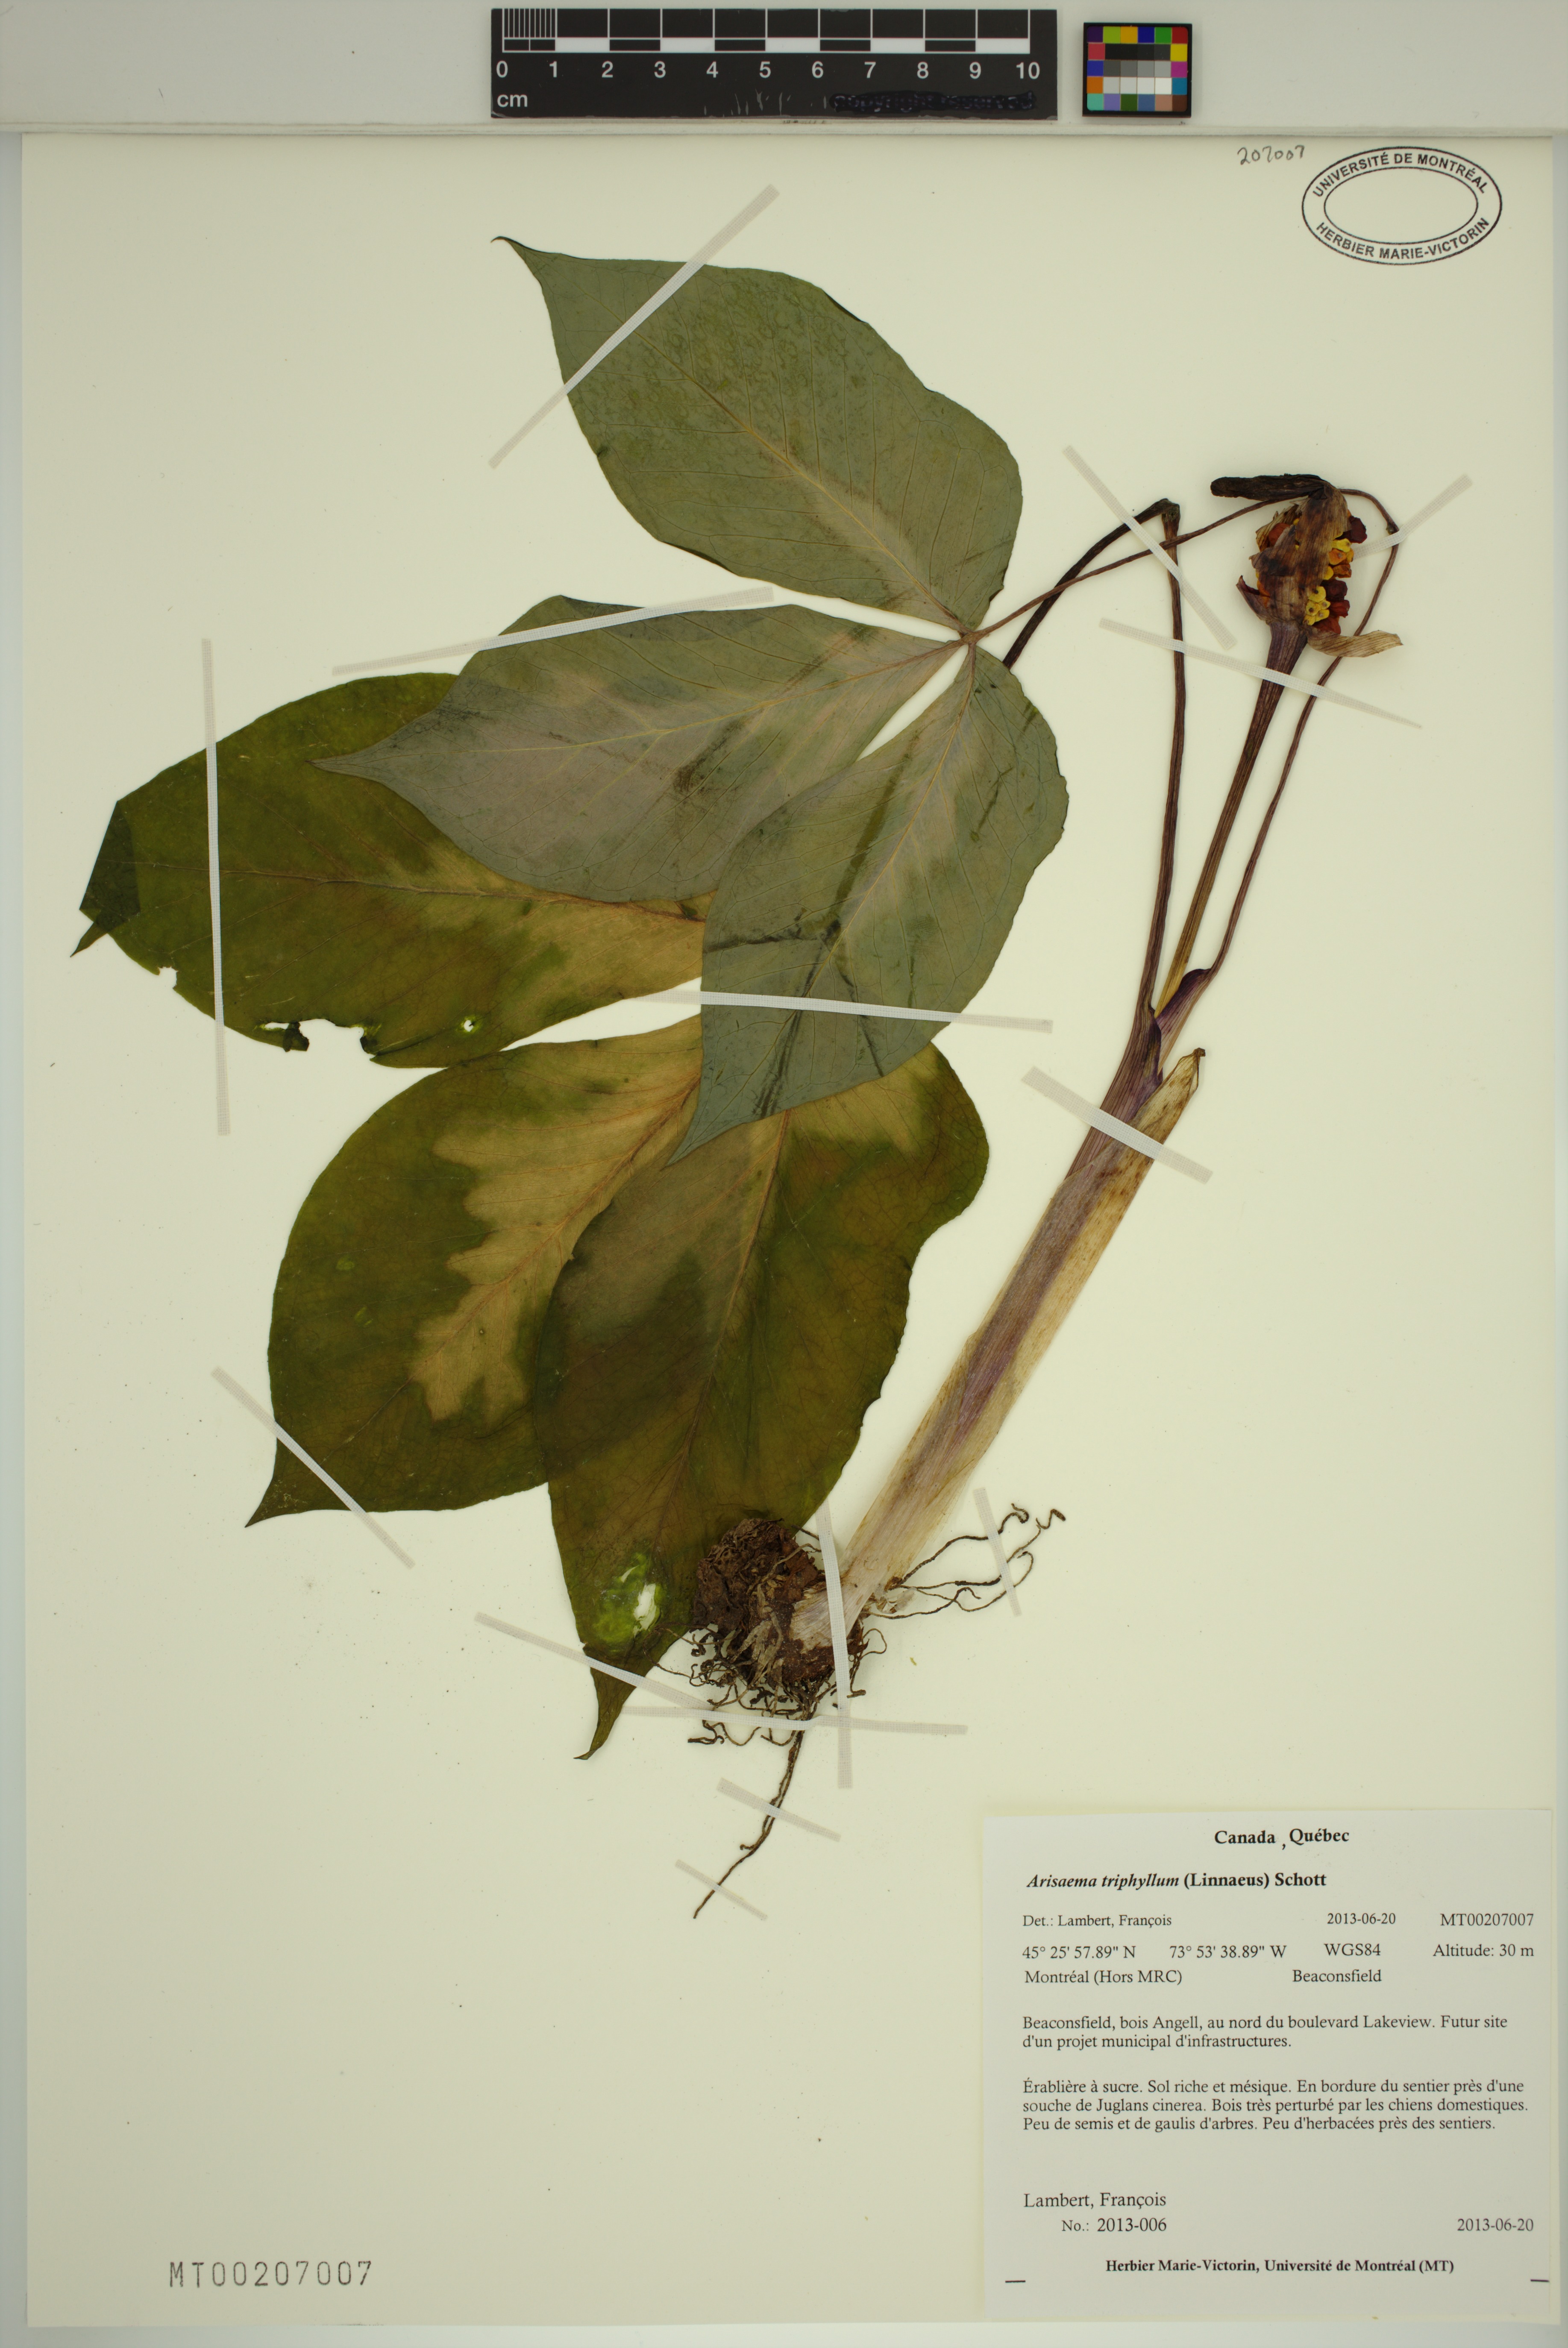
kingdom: Plantae
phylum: Tracheophyta
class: Liliopsida
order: Alismatales
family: Araceae
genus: Arisaema
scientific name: Arisaema triphyllum
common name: Jack-in-the-pulpit
